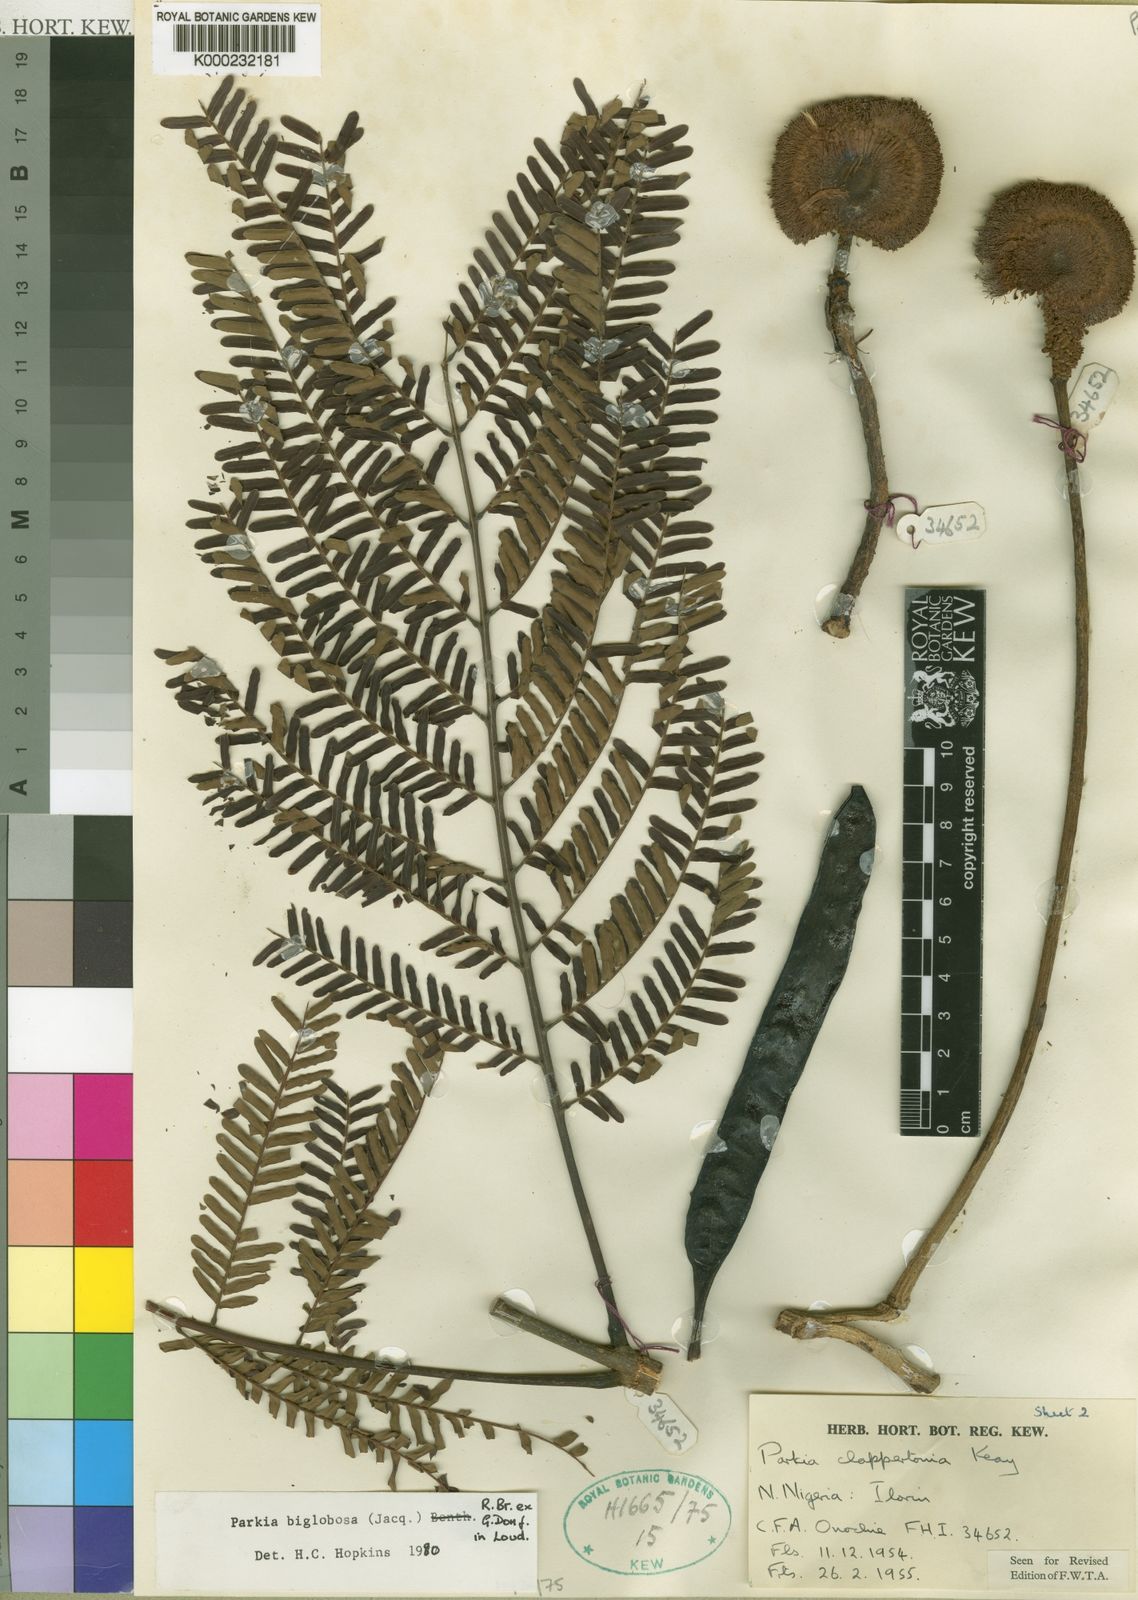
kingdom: Plantae
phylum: Tracheophyta
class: Magnoliopsida
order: Fabales
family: Fabaceae
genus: Parkia
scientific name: Parkia biglobosa
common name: African locust-bean
